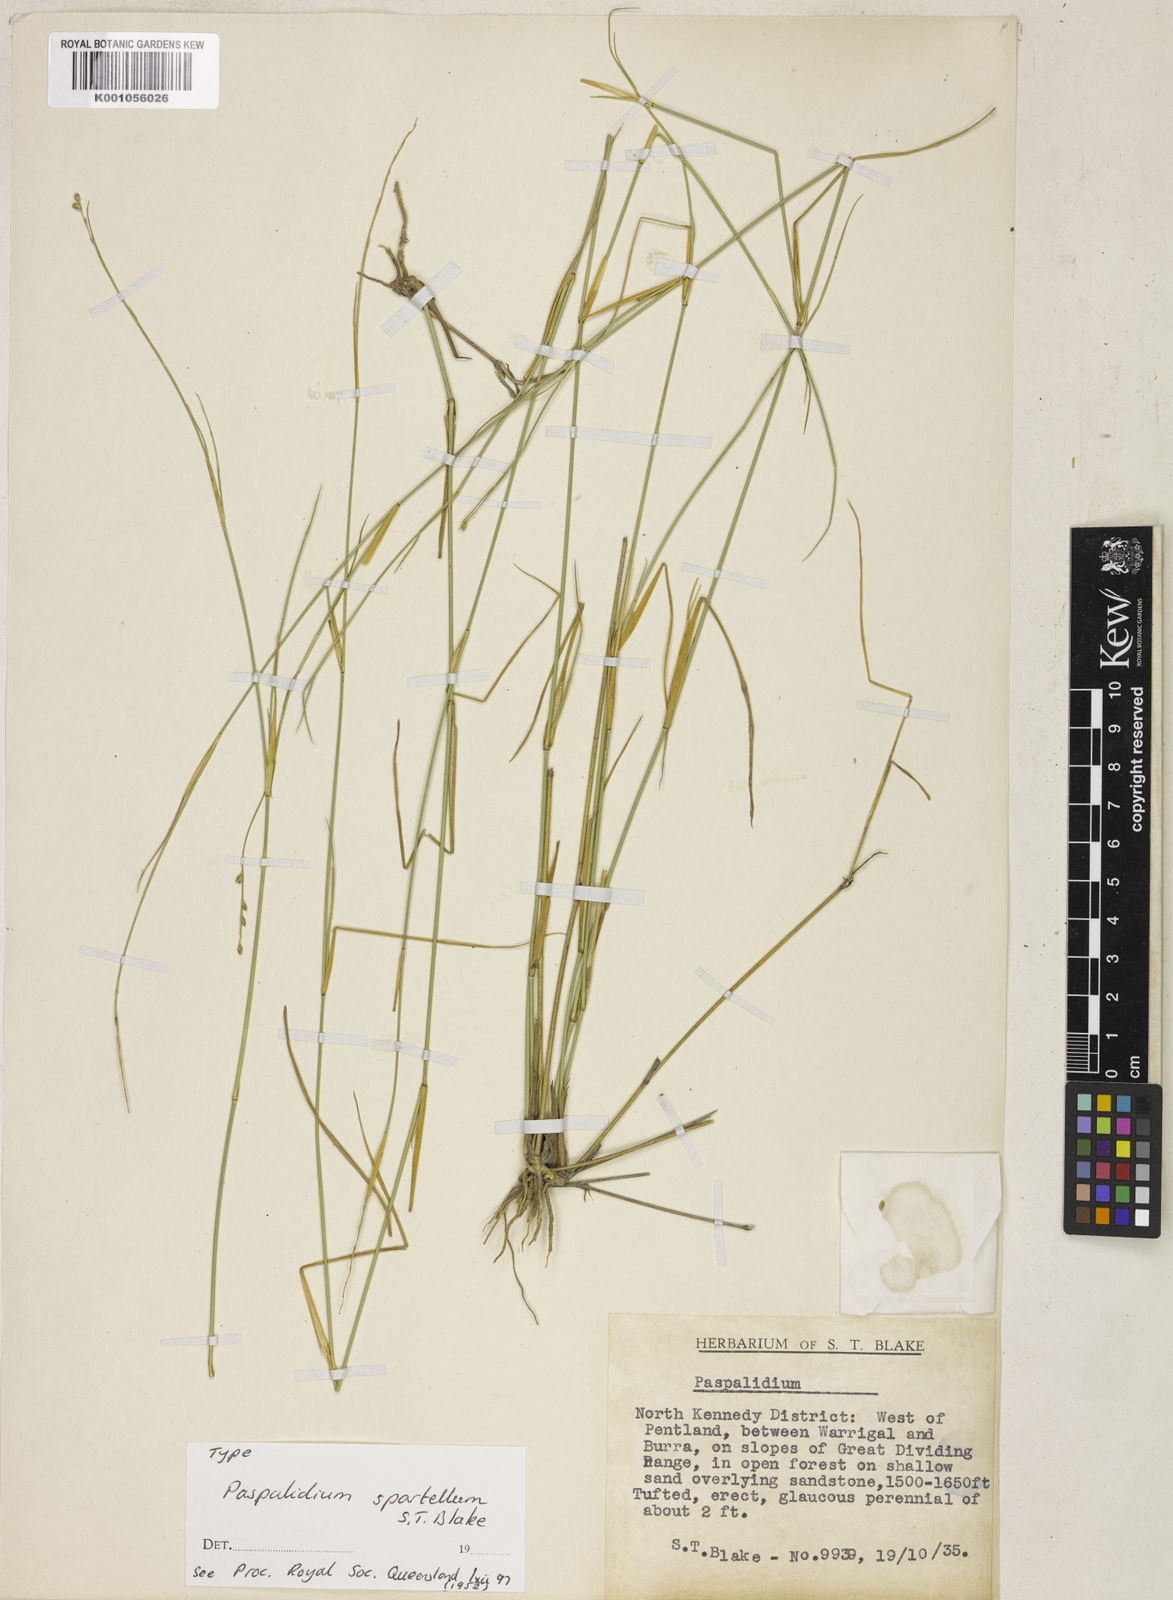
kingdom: Plantae
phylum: Tracheophyta
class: Liliopsida
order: Poales
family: Poaceae
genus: Setaria
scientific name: Setaria spartella
